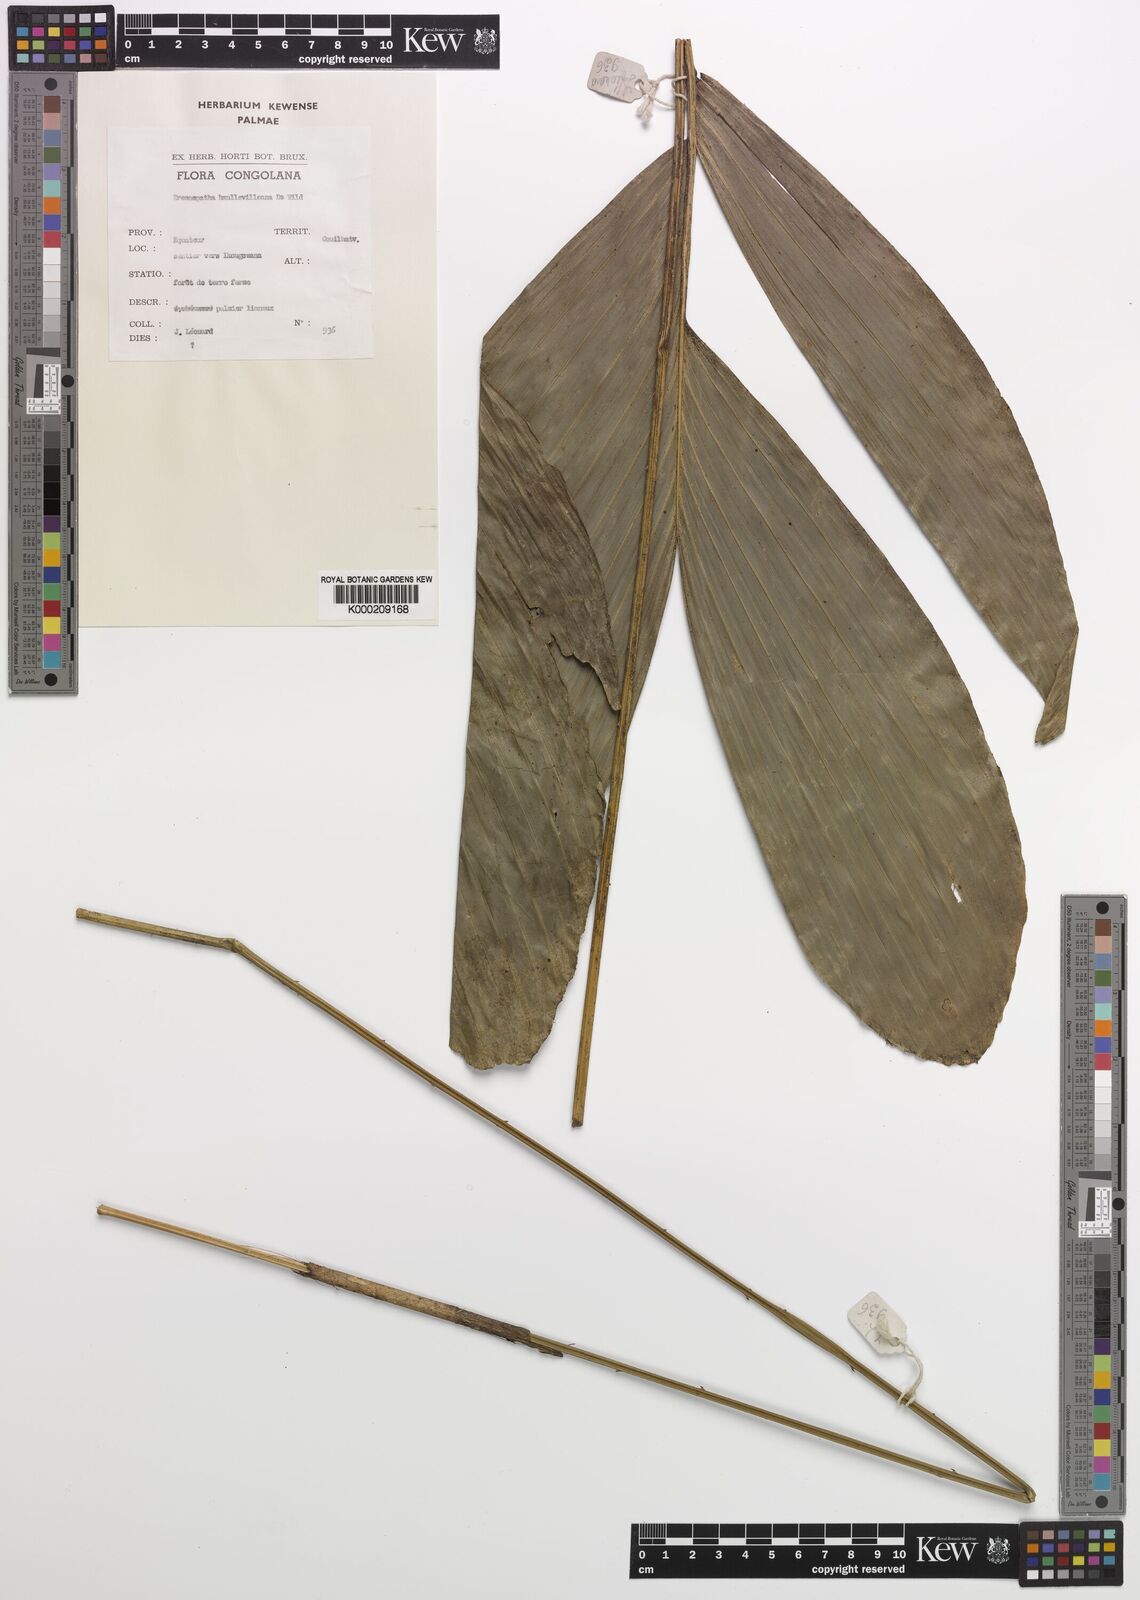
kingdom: Plantae
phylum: Tracheophyta
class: Liliopsida
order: Arecales
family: Arecaceae
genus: Eremospatha
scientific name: Eremospatha haullevilleana
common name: Rattan
